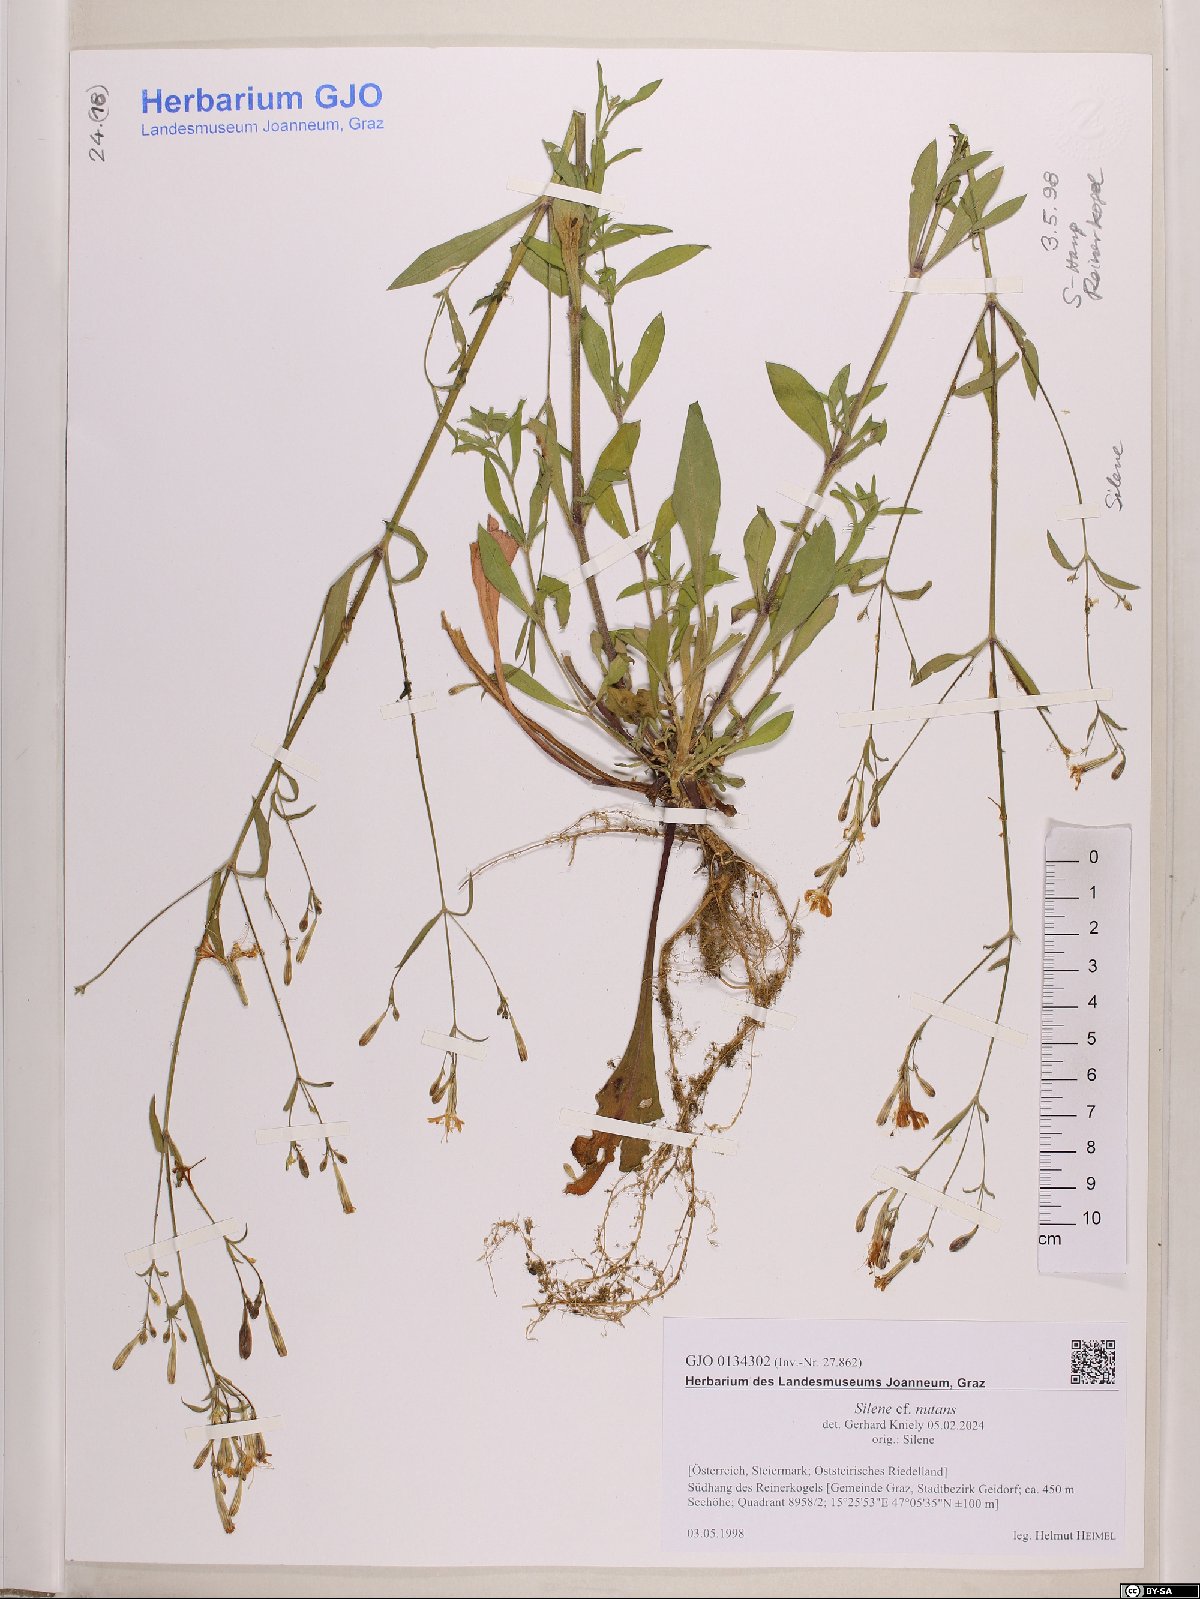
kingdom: Plantae
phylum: Tracheophyta
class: Magnoliopsida
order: Caryophyllales
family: Caryophyllaceae
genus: Silene
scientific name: Silene nutans
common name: Nottingham catchfly
